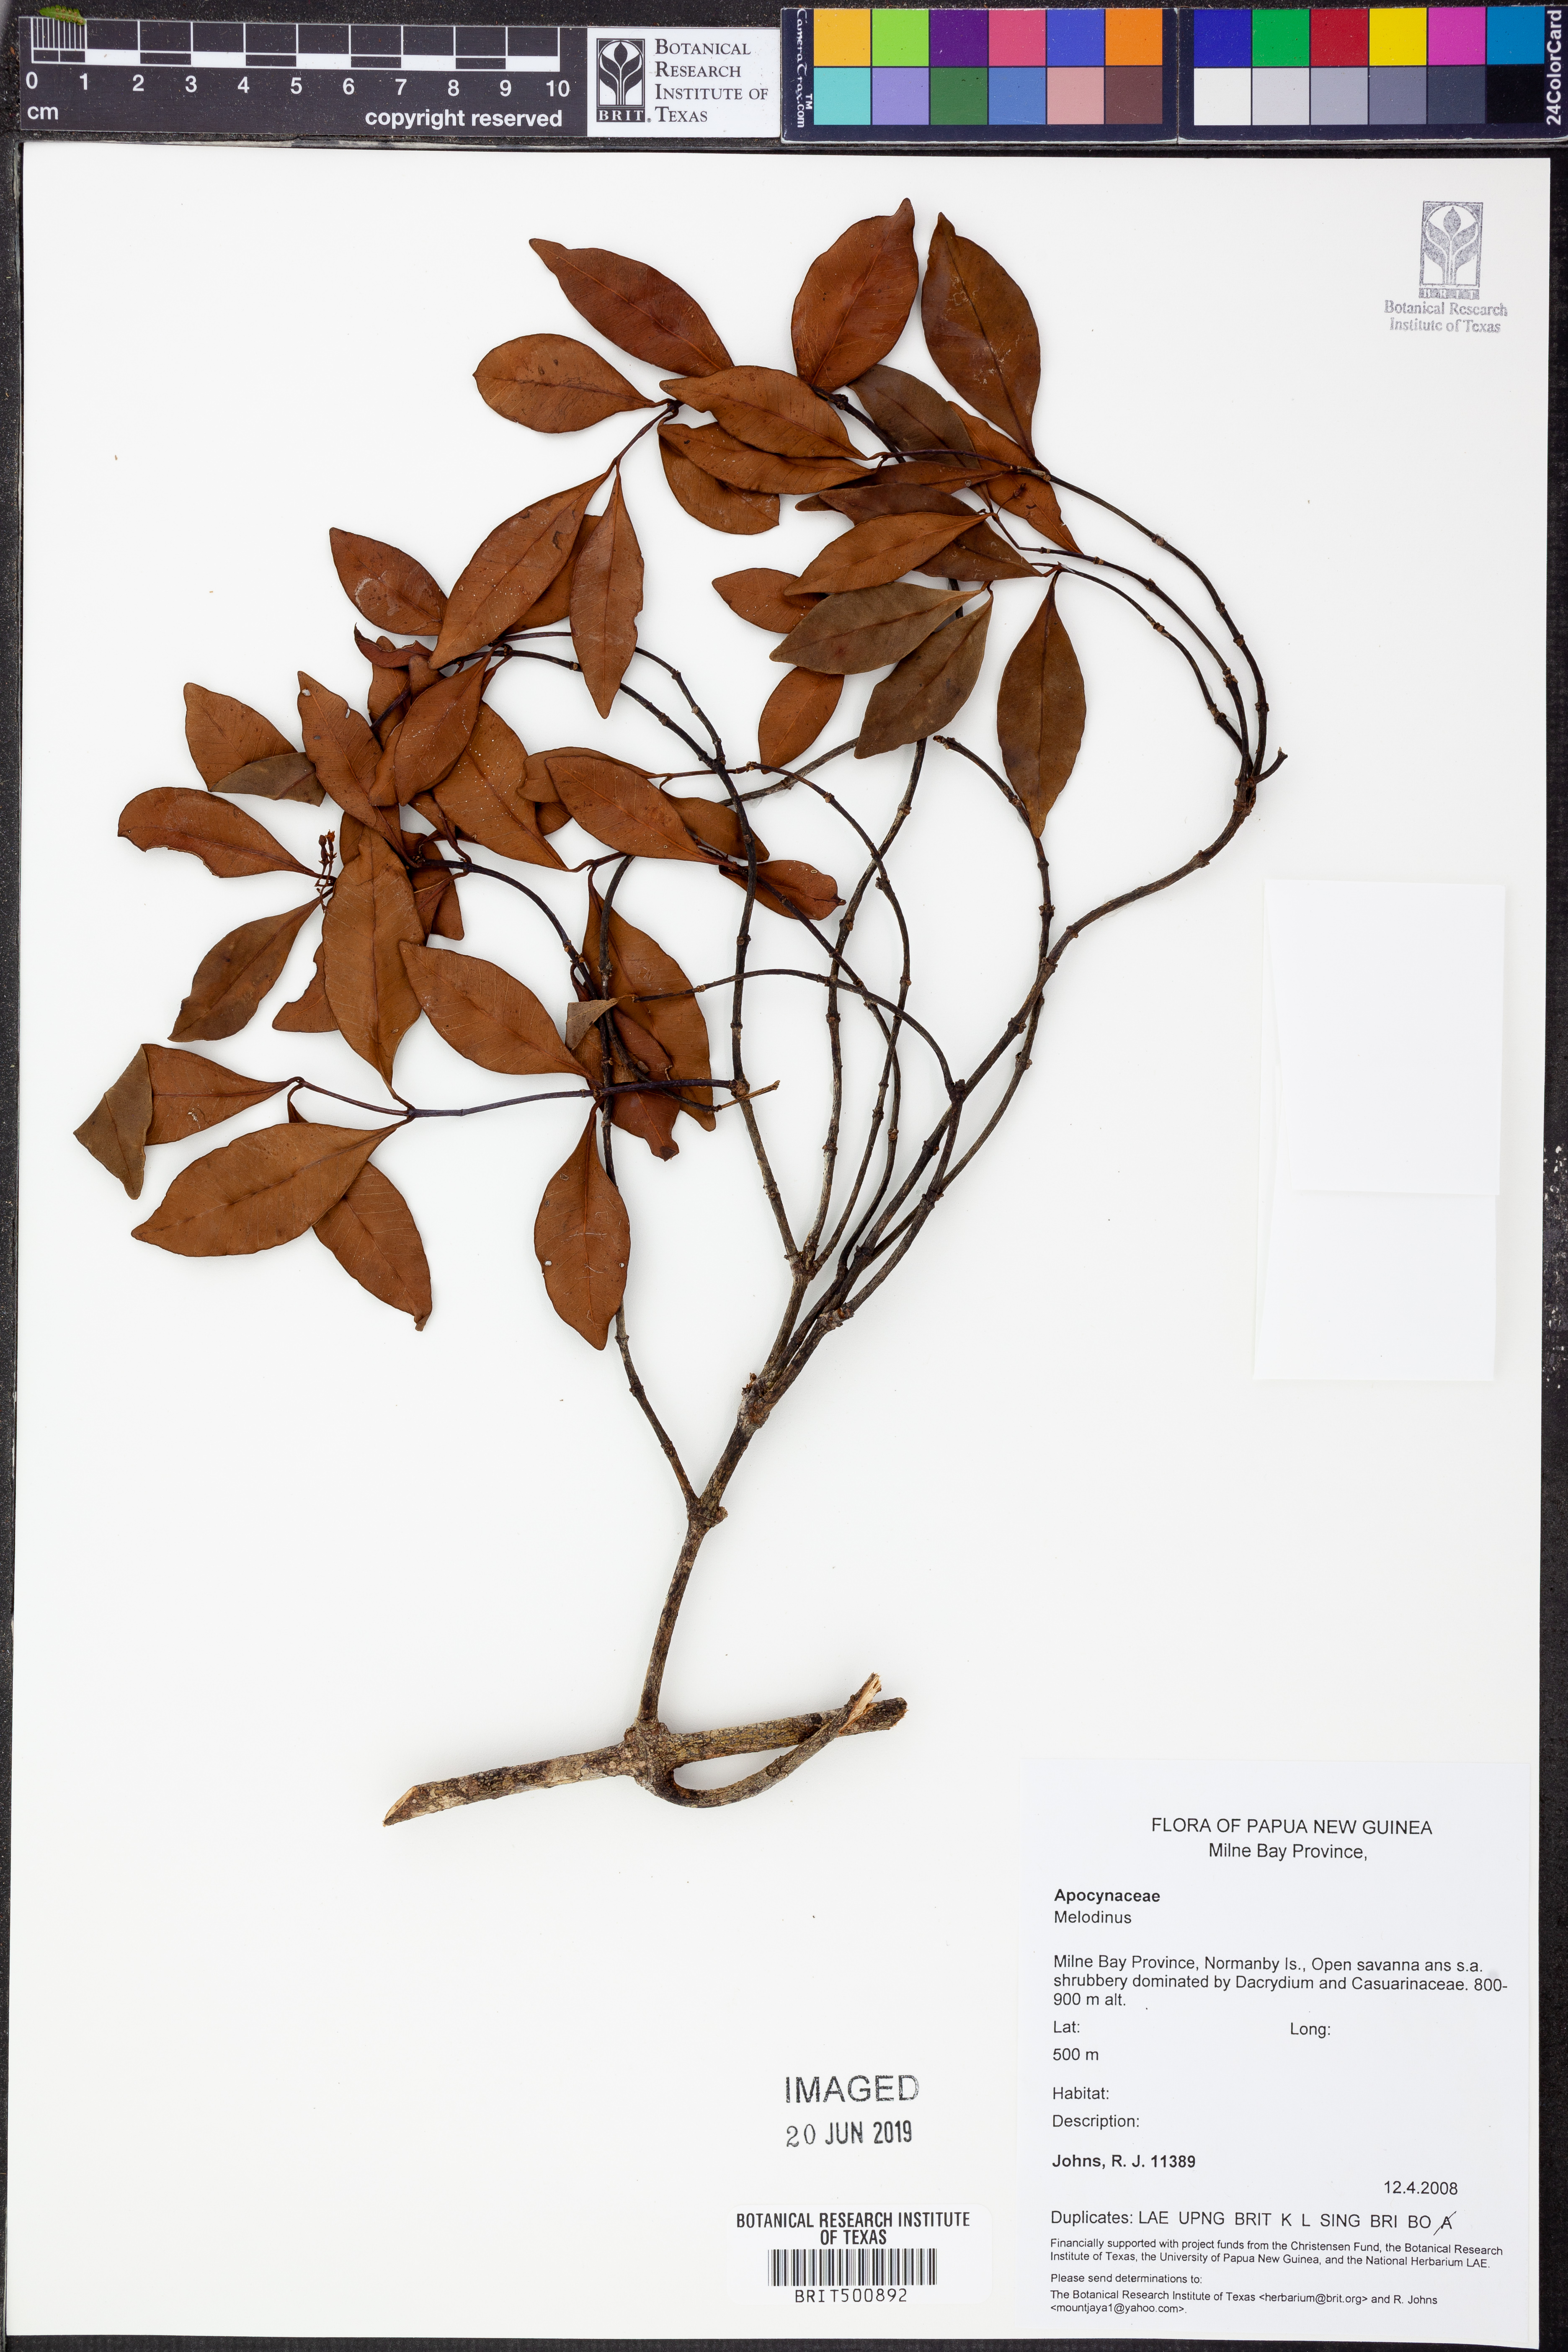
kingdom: Plantae
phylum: Tracheophyta
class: Magnoliopsida
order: Gentianales
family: Apocynaceae
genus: Melodinus
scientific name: Melodinus
